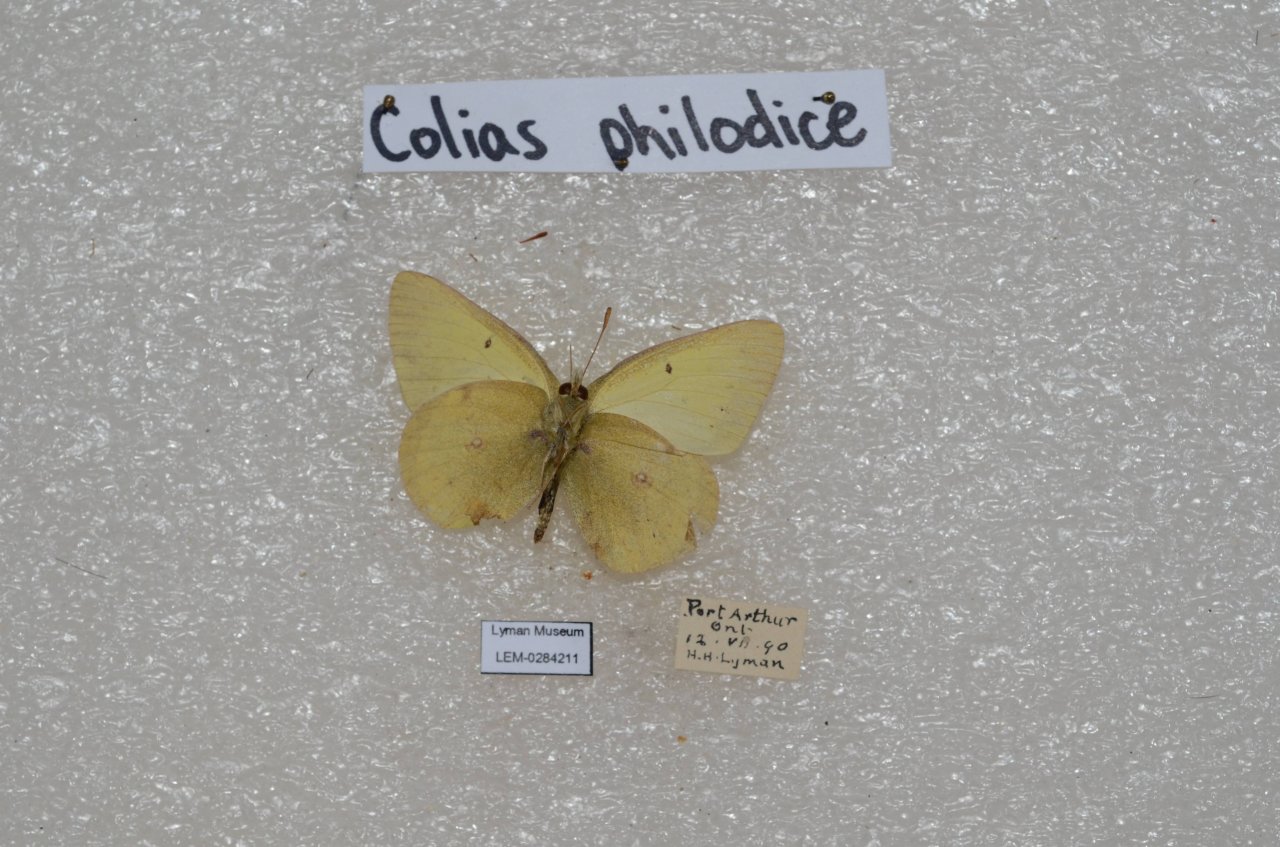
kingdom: Animalia
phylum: Arthropoda
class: Insecta
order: Lepidoptera
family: Pieridae
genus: Colias
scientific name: Colias philodice
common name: Clouded Sulphur
